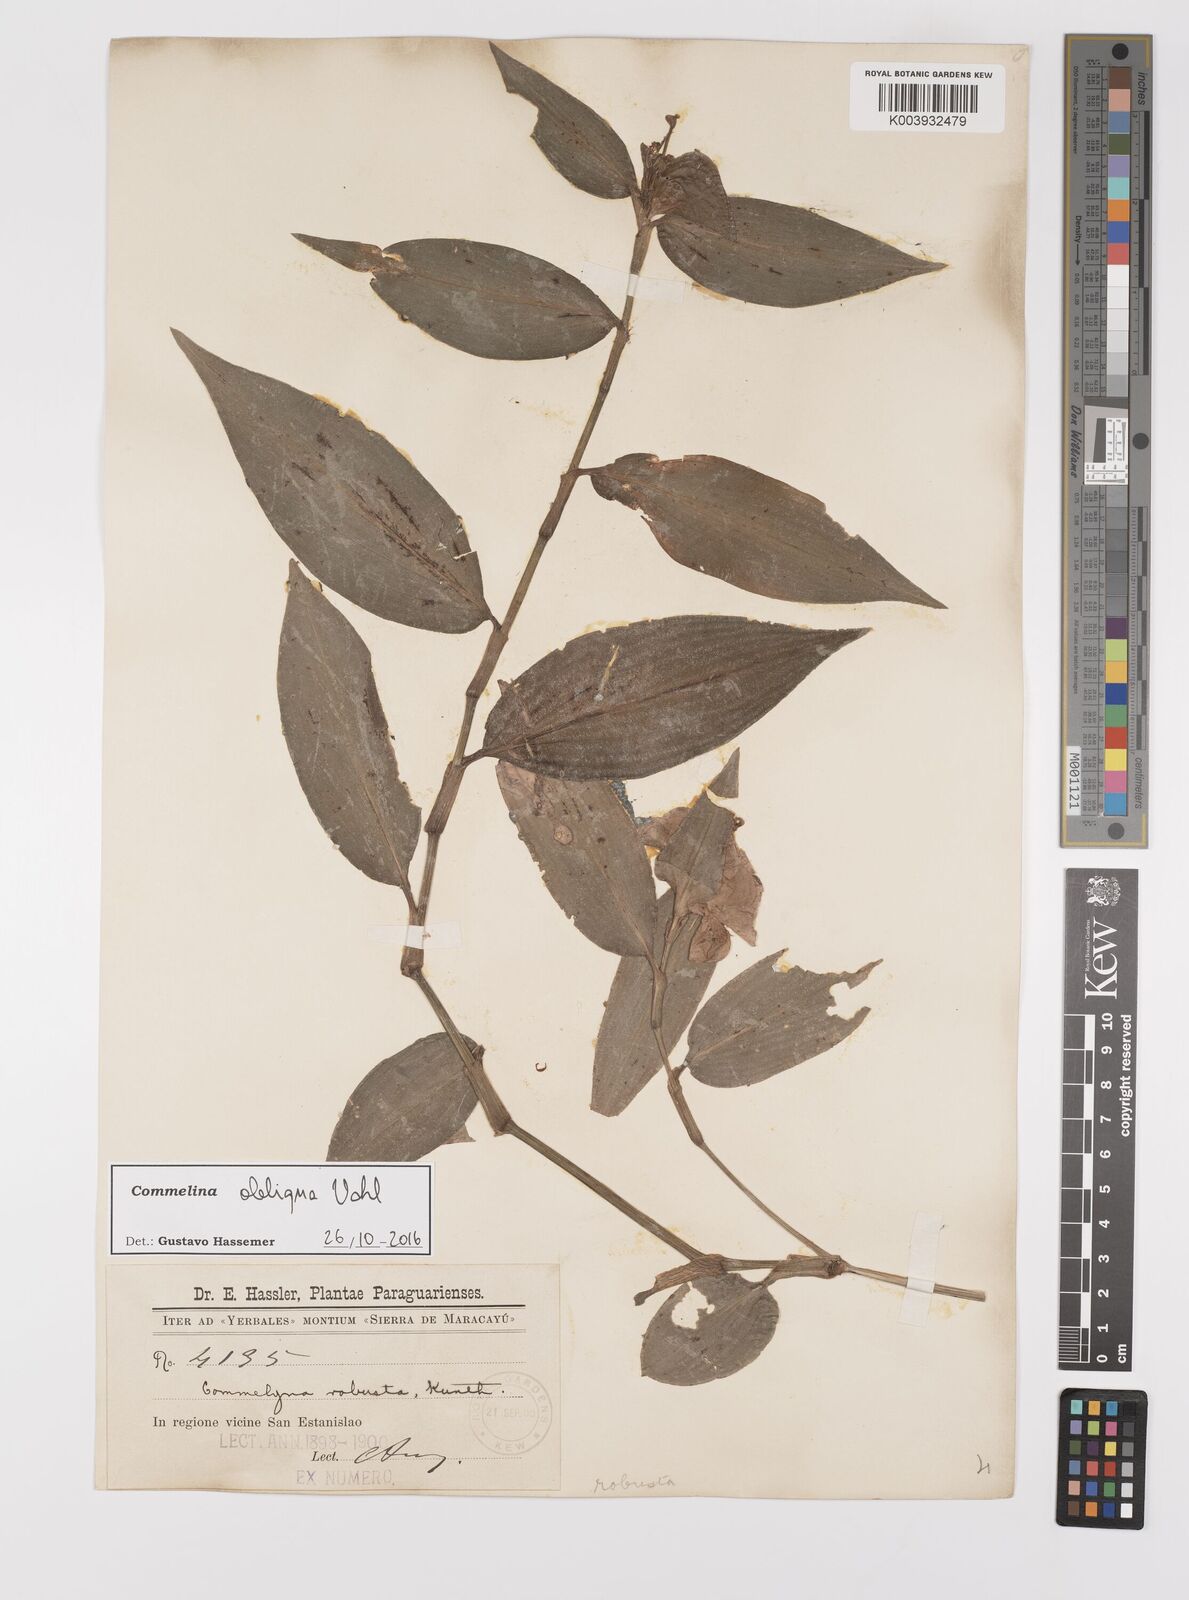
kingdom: Plantae
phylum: Tracheophyta
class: Liliopsida
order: Commelinales
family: Commelinaceae
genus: Commelina
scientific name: Commelina obliqua
